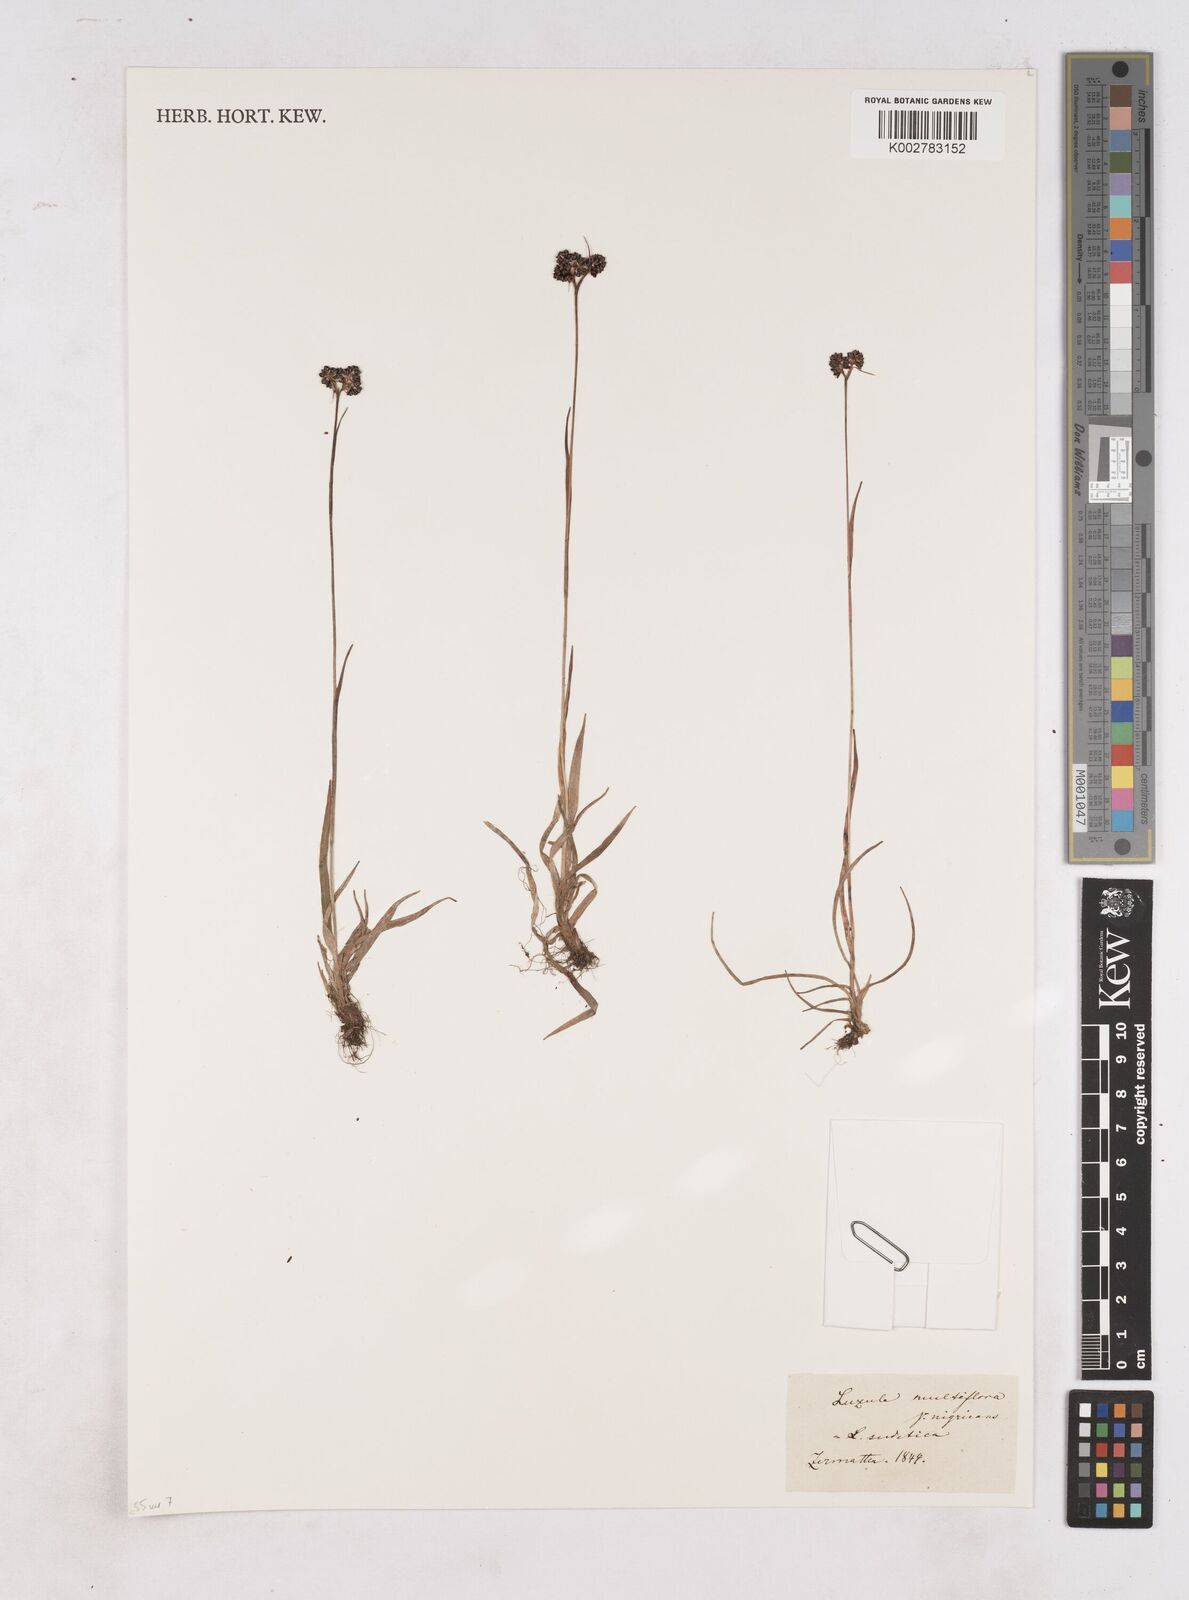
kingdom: Plantae
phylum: Tracheophyta
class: Liliopsida
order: Poales
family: Juncaceae
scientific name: Juncaceae
